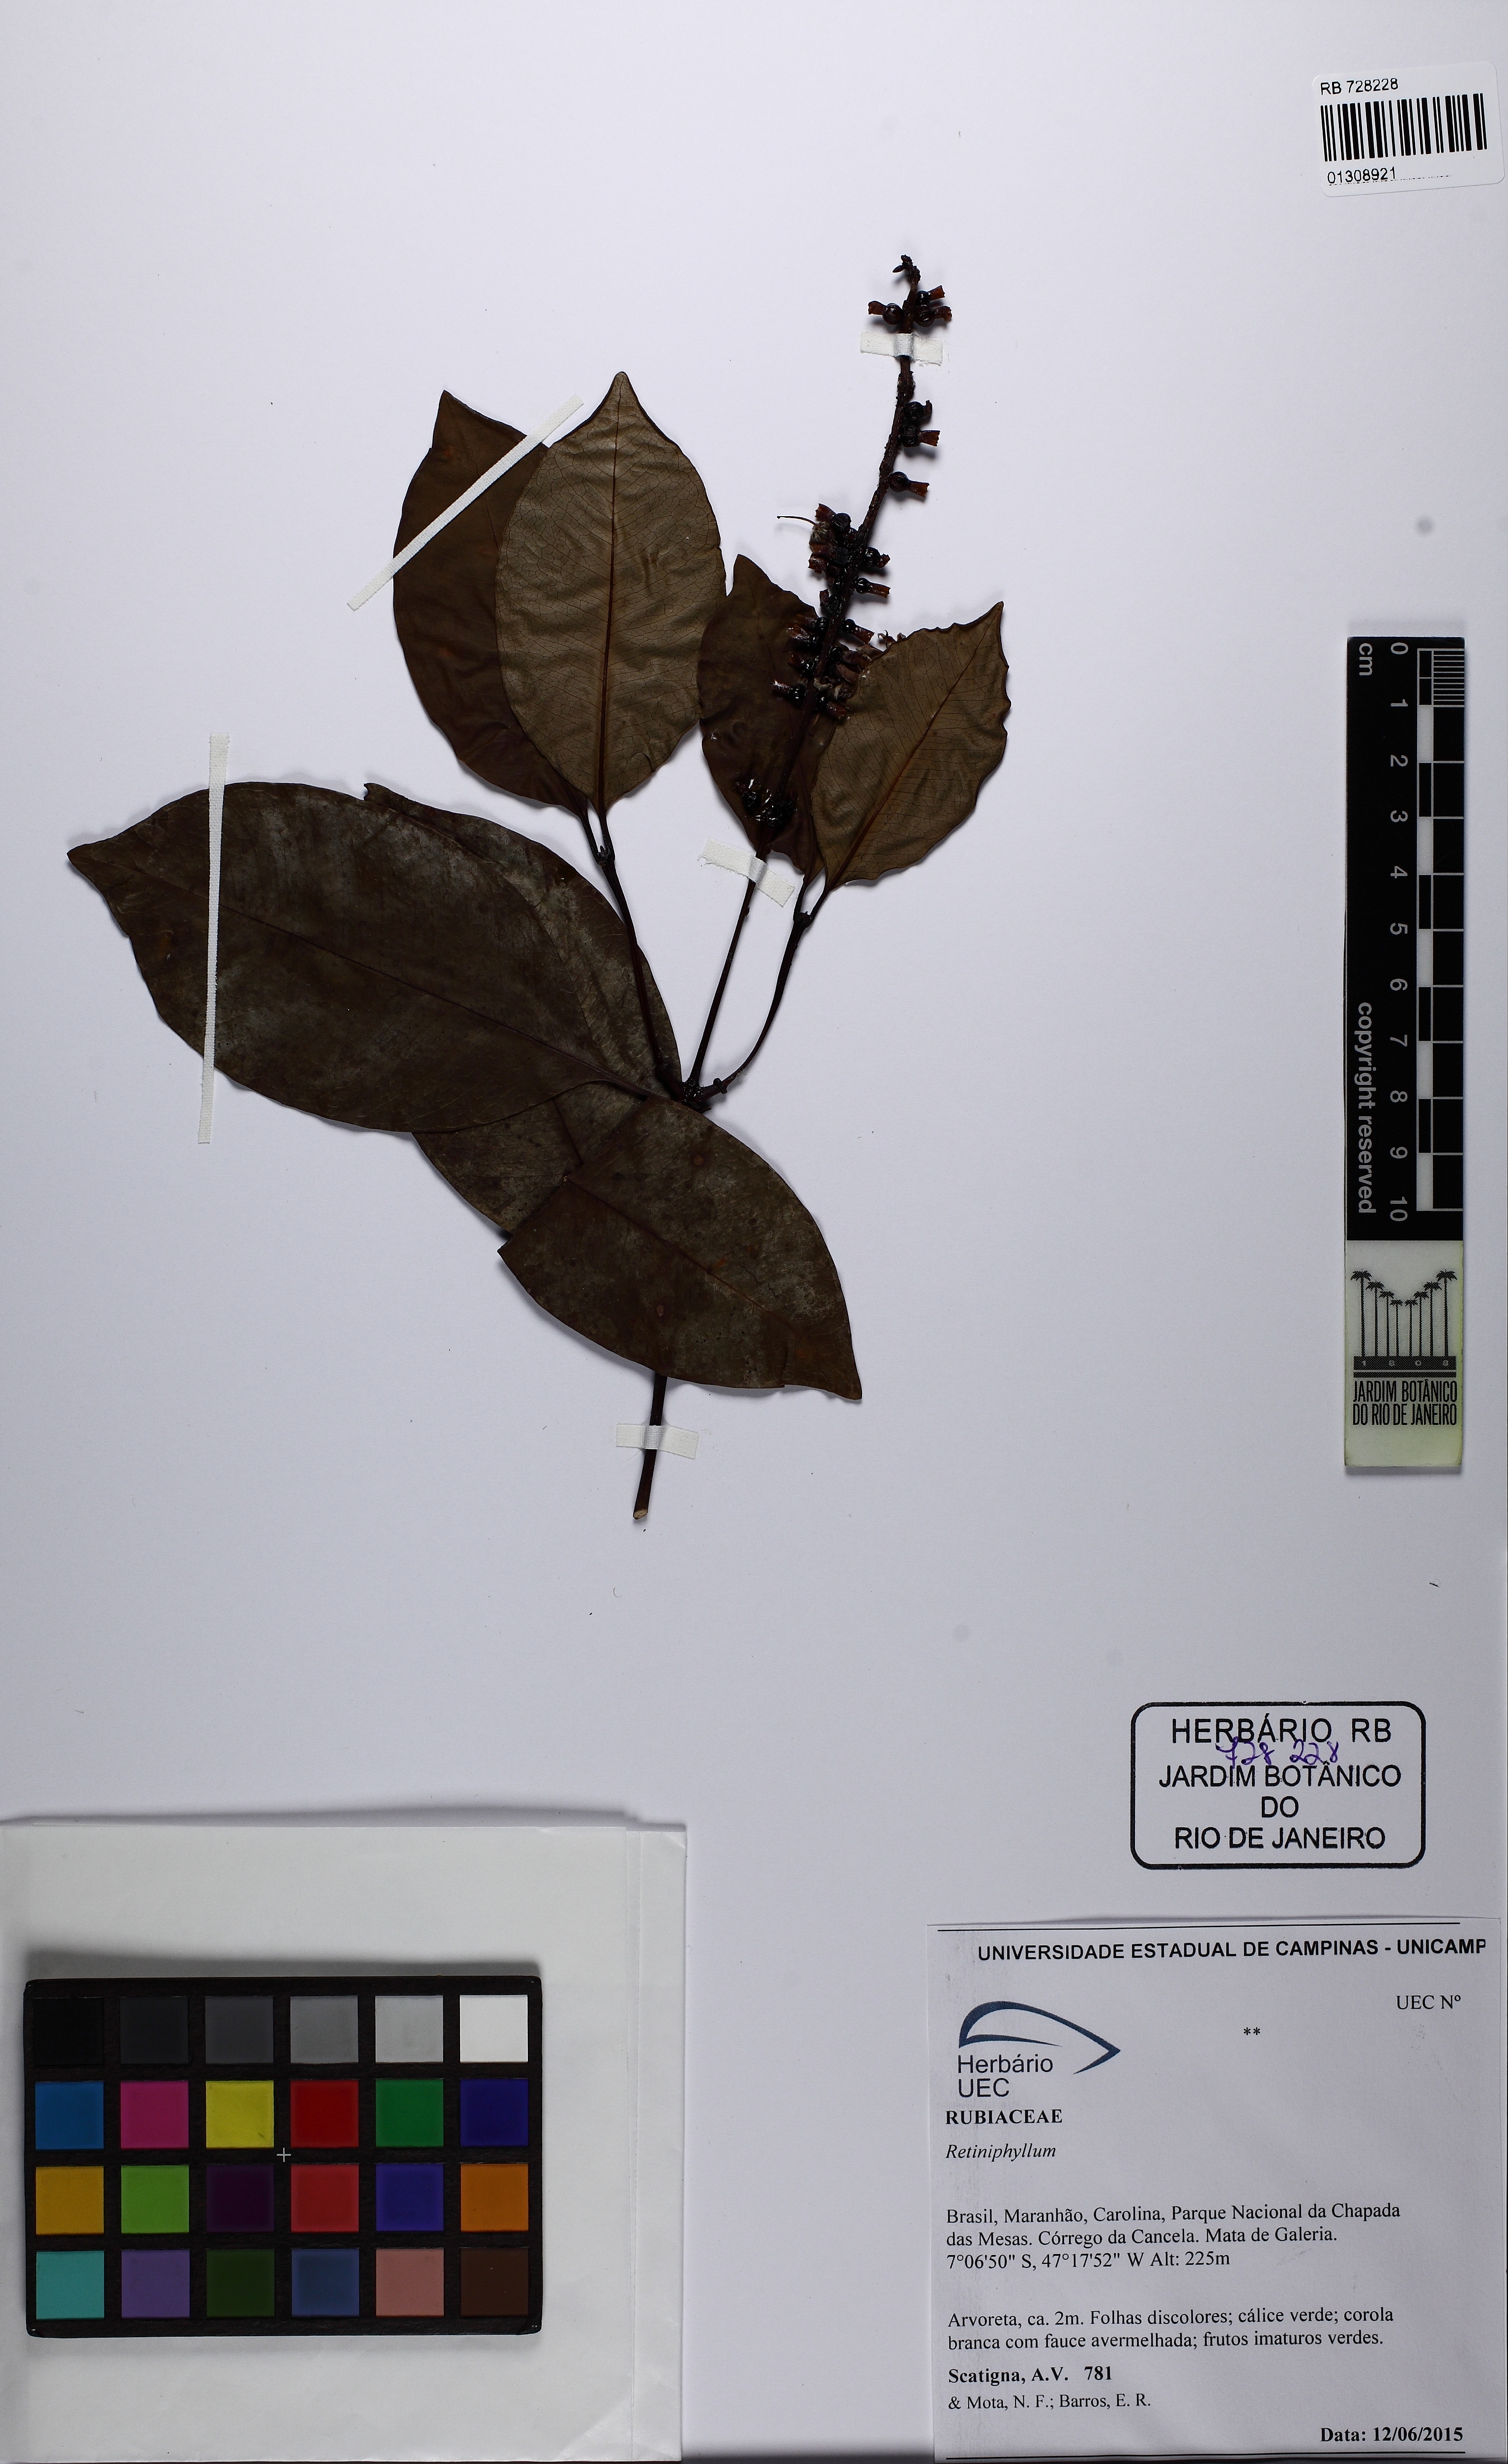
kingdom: Plantae
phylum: Tracheophyta
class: Magnoliopsida
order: Gentianales
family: Rubiaceae
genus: Retiniphyllum
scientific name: Retiniphyllum
